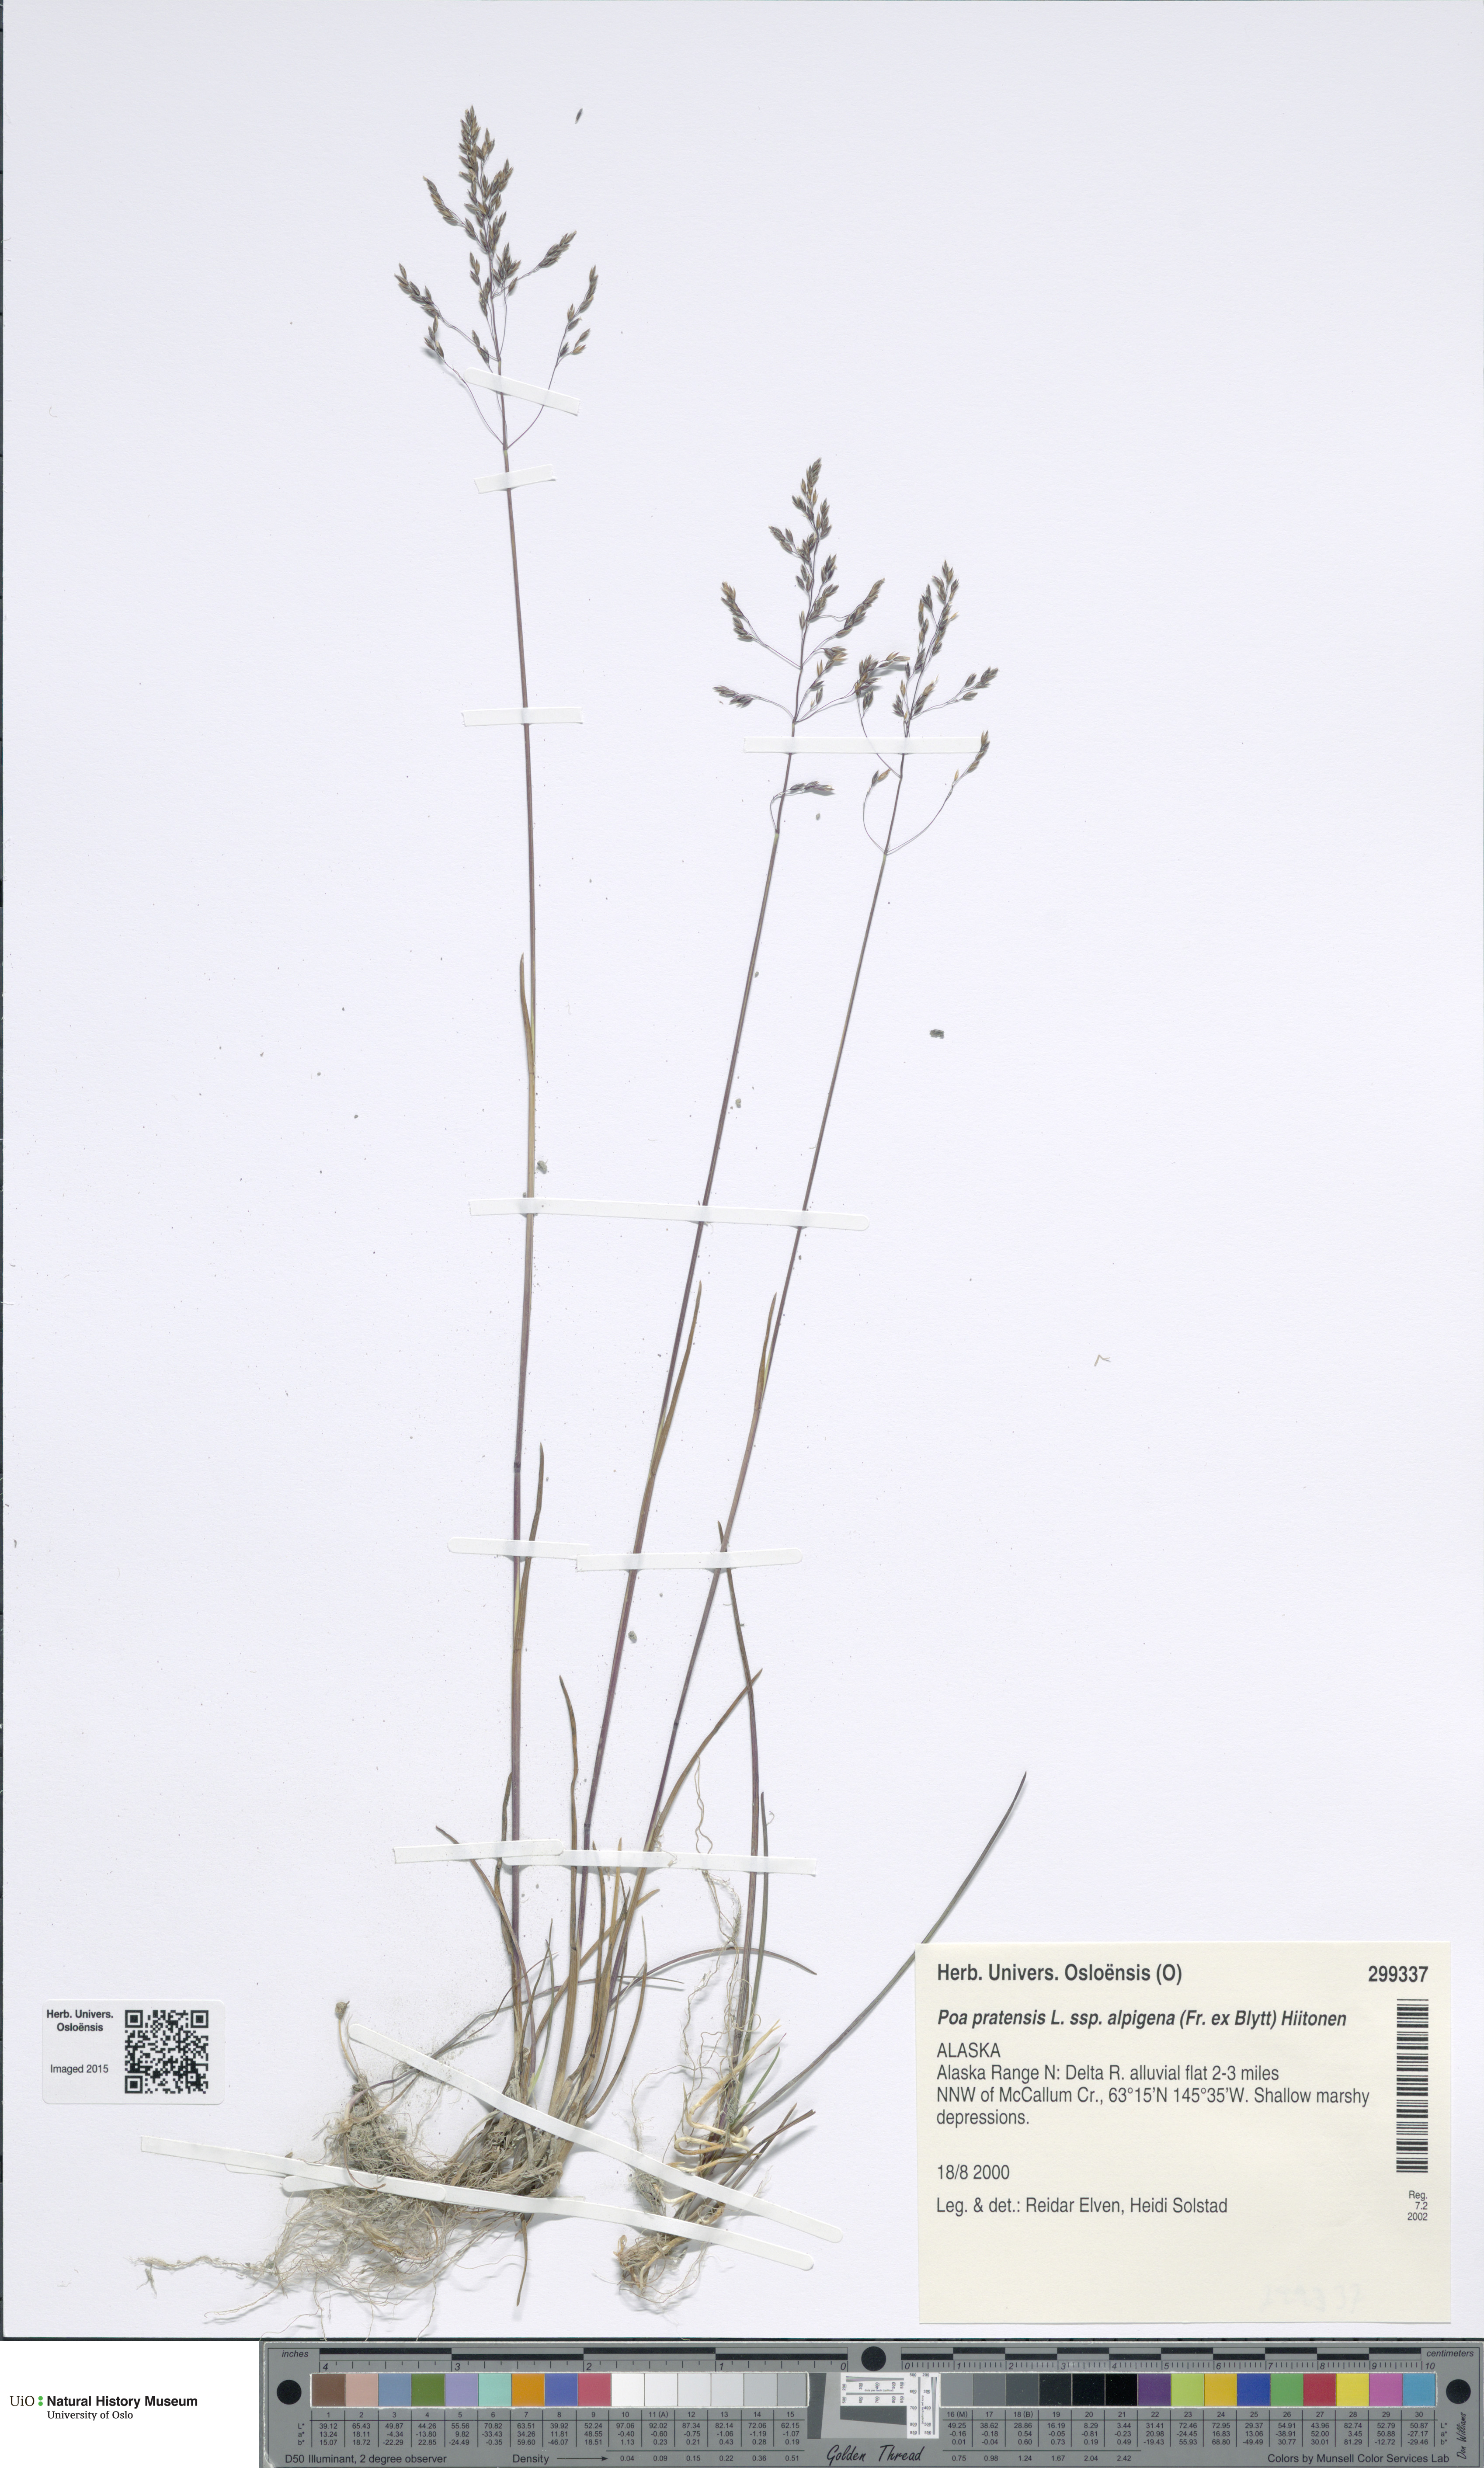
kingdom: Plantae
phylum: Tracheophyta
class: Liliopsida
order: Poales
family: Poaceae
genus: Poa
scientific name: Poa alpigena
